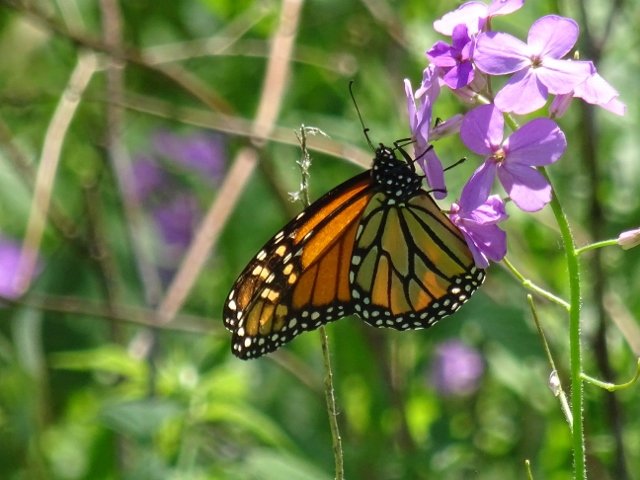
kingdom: Animalia
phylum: Arthropoda
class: Insecta
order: Lepidoptera
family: Nymphalidae
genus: Danaus
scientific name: Danaus plexippus
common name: Monarch
